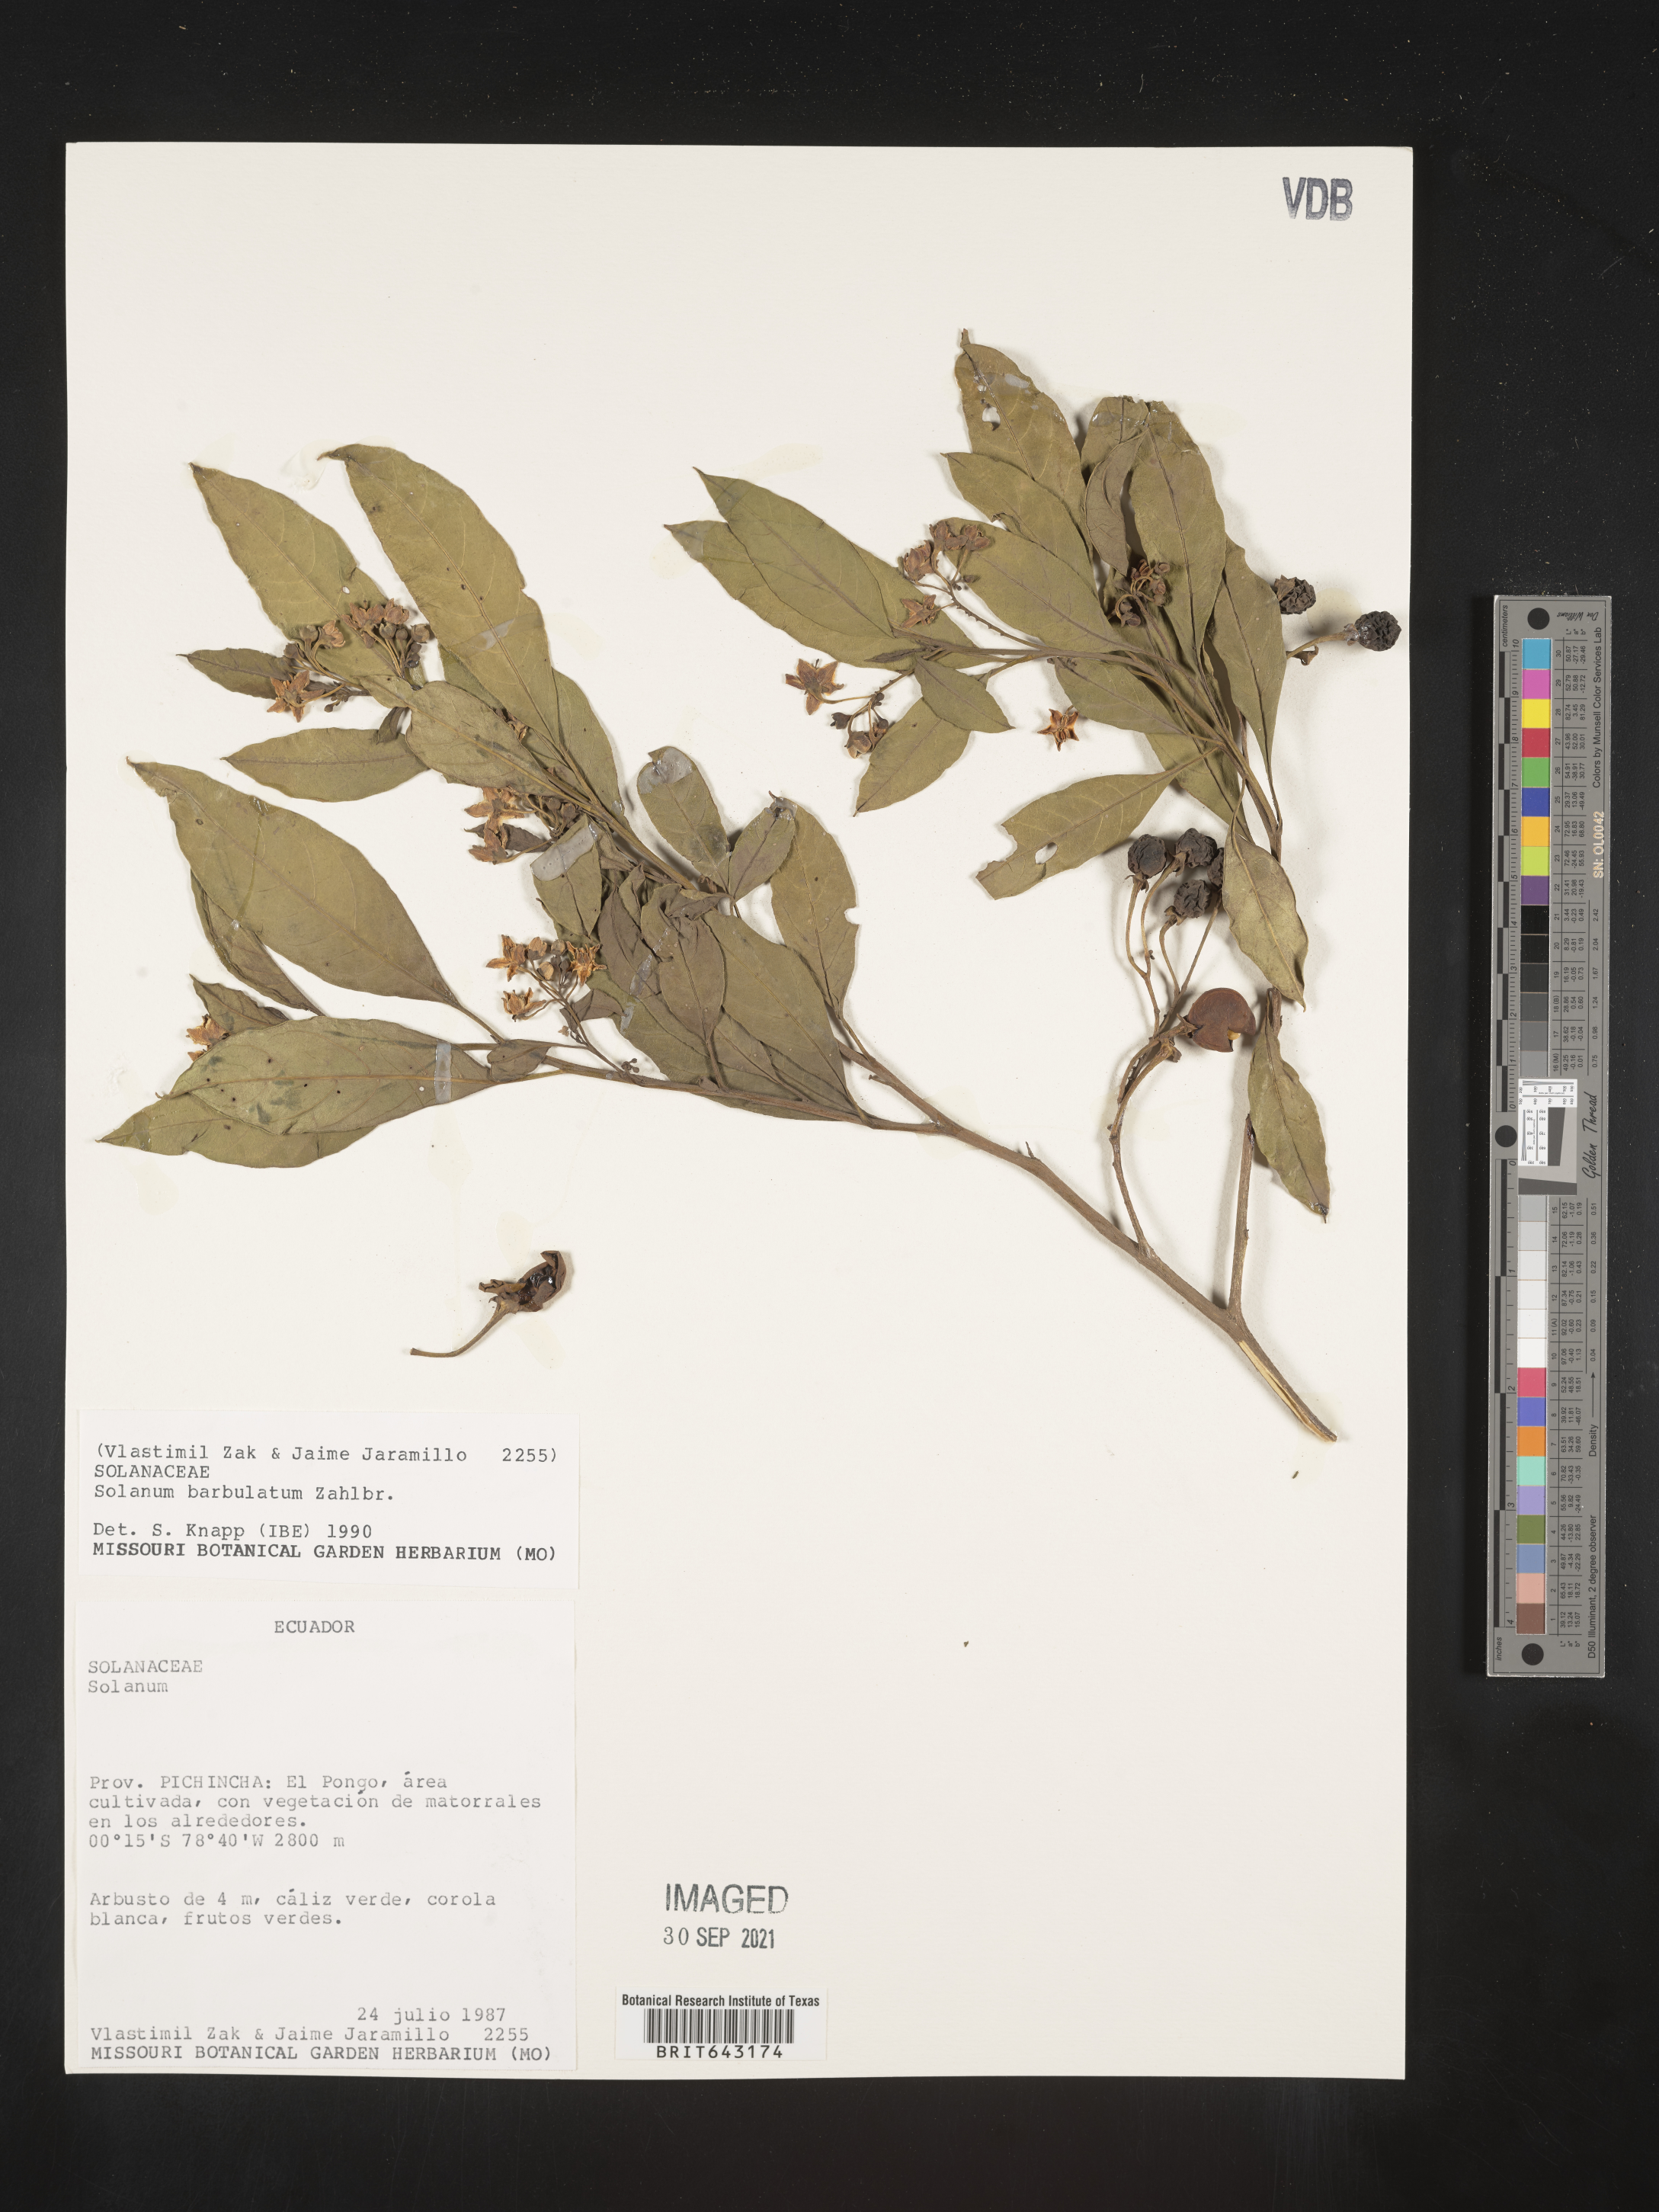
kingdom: Plantae
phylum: Tracheophyta
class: Magnoliopsida
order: Solanales
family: Solanaceae
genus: Solanum
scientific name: Solanum
